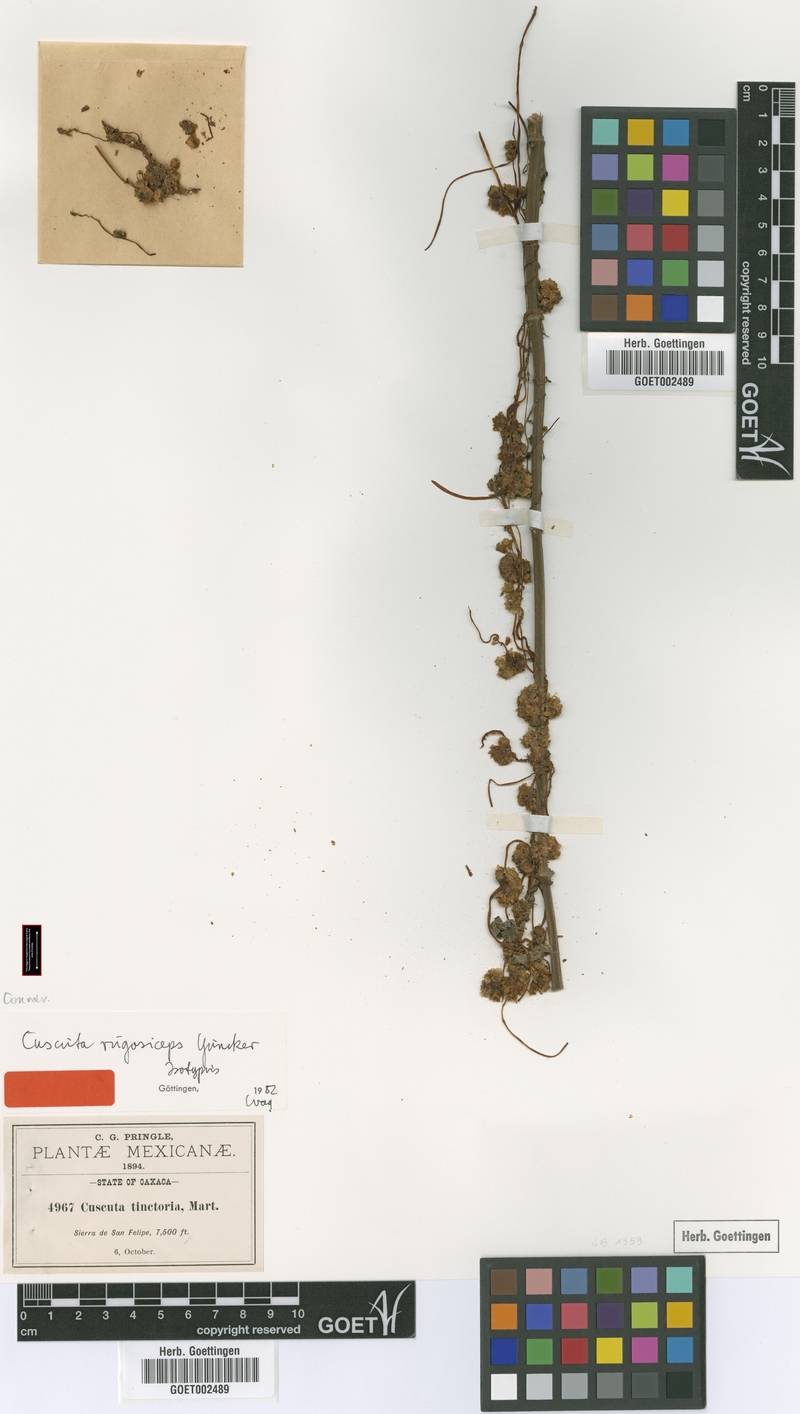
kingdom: Plantae
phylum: Tracheophyta
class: Magnoliopsida
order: Solanales
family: Convolvulaceae
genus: Cuscuta
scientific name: Cuscuta rugosiceps
